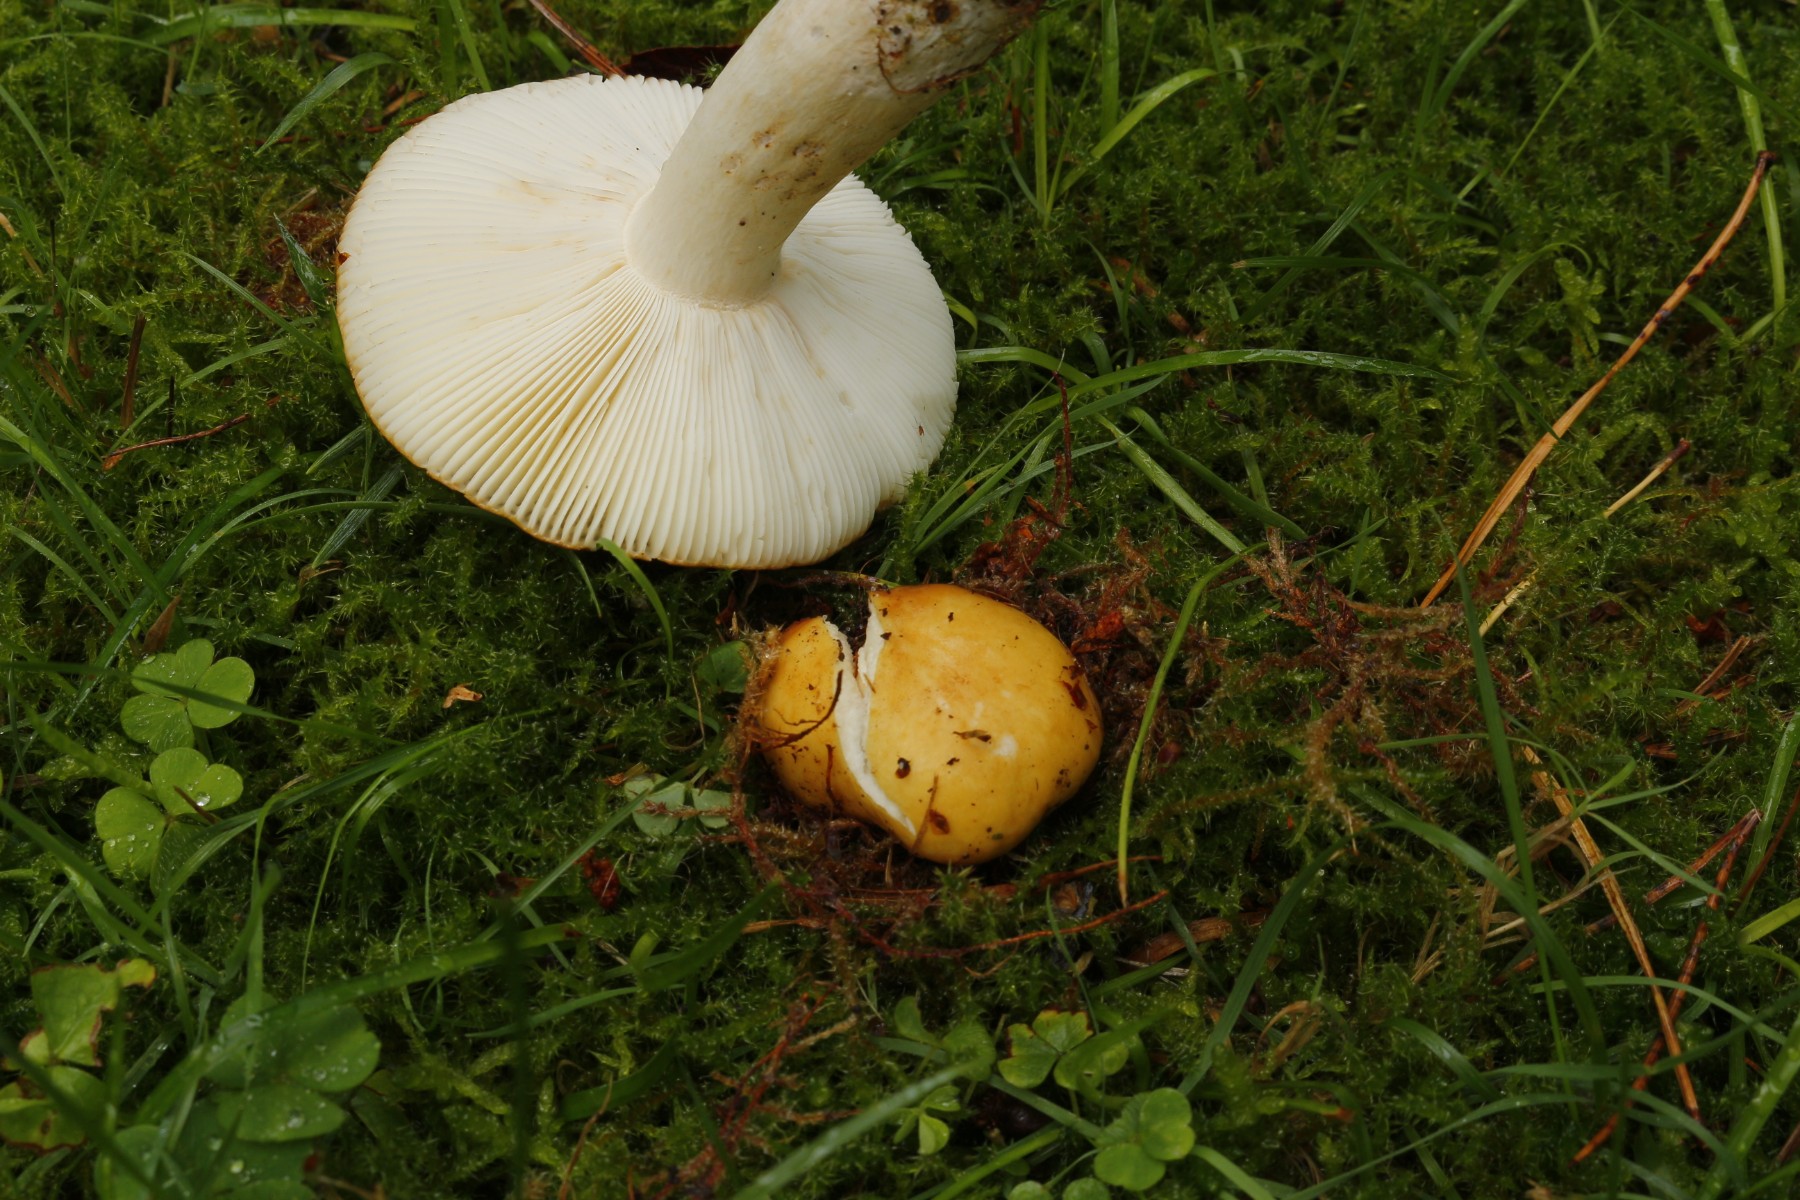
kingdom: Fungi
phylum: Basidiomycota
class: Agaricomycetes
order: Russulales
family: Russulaceae
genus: Russula
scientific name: Russula ochroleuca
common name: okkergul skørhat
